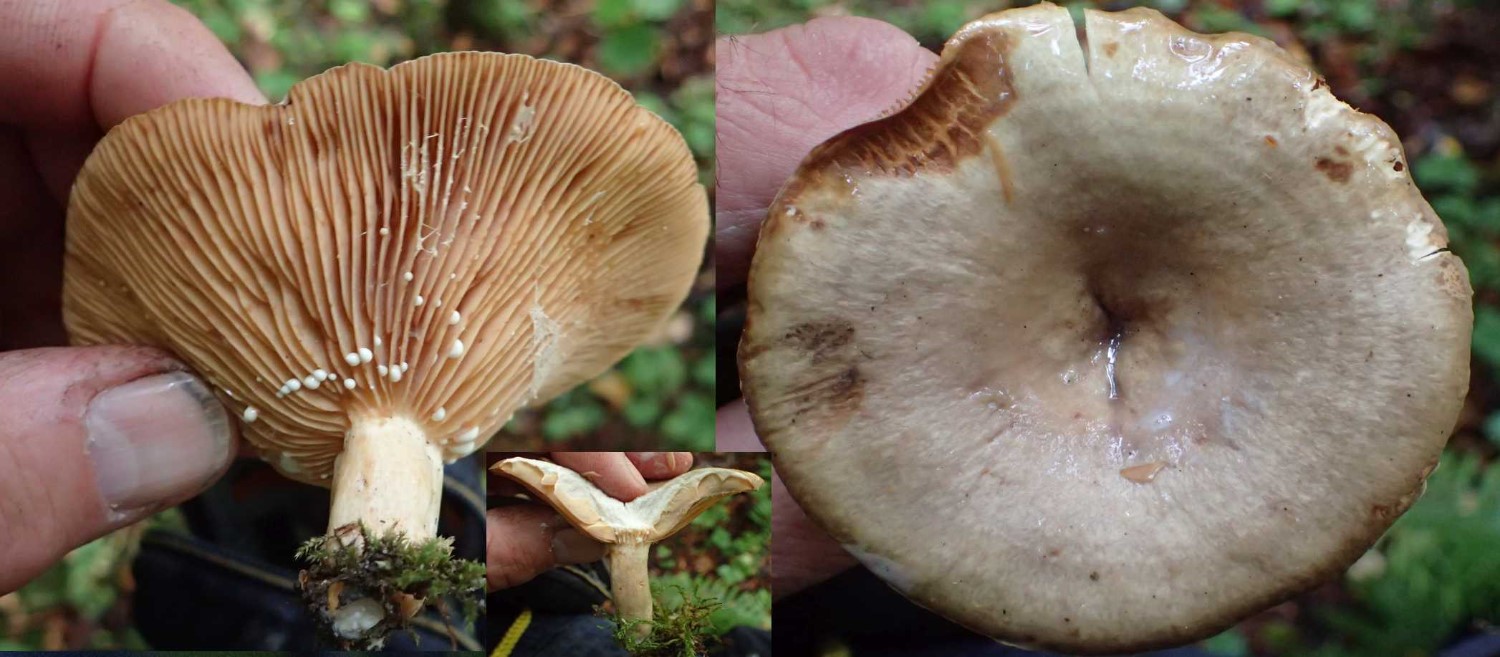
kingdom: Fungi
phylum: Basidiomycota
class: Agaricomycetes
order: Russulales
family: Russulaceae
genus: Lactarius
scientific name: Lactarius pyrogalus
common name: hassel-mælkehat
